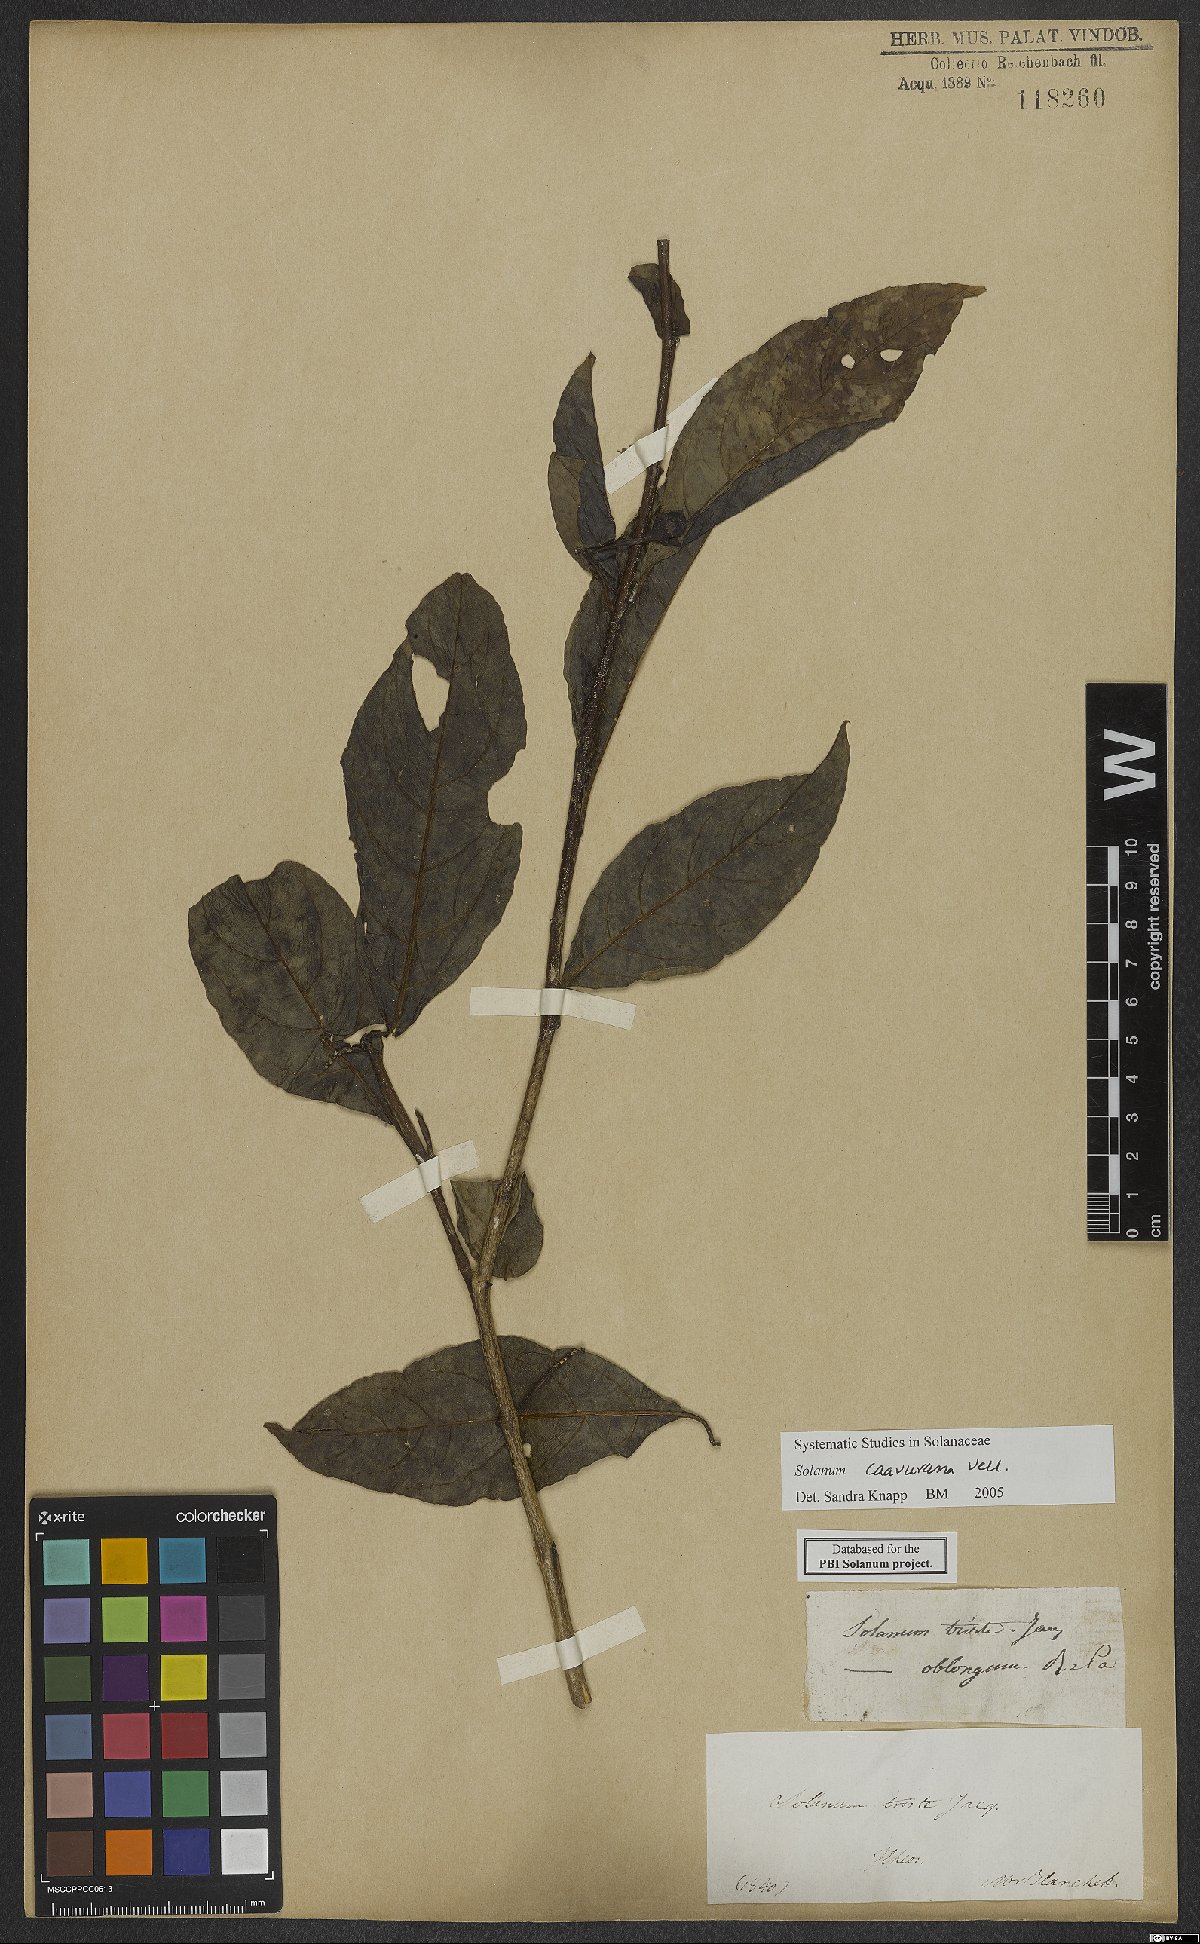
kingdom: Plantae
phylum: Tracheophyta
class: Magnoliopsida
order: Solanales
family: Solanaceae
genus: Solanum
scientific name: Solanum caavurana
